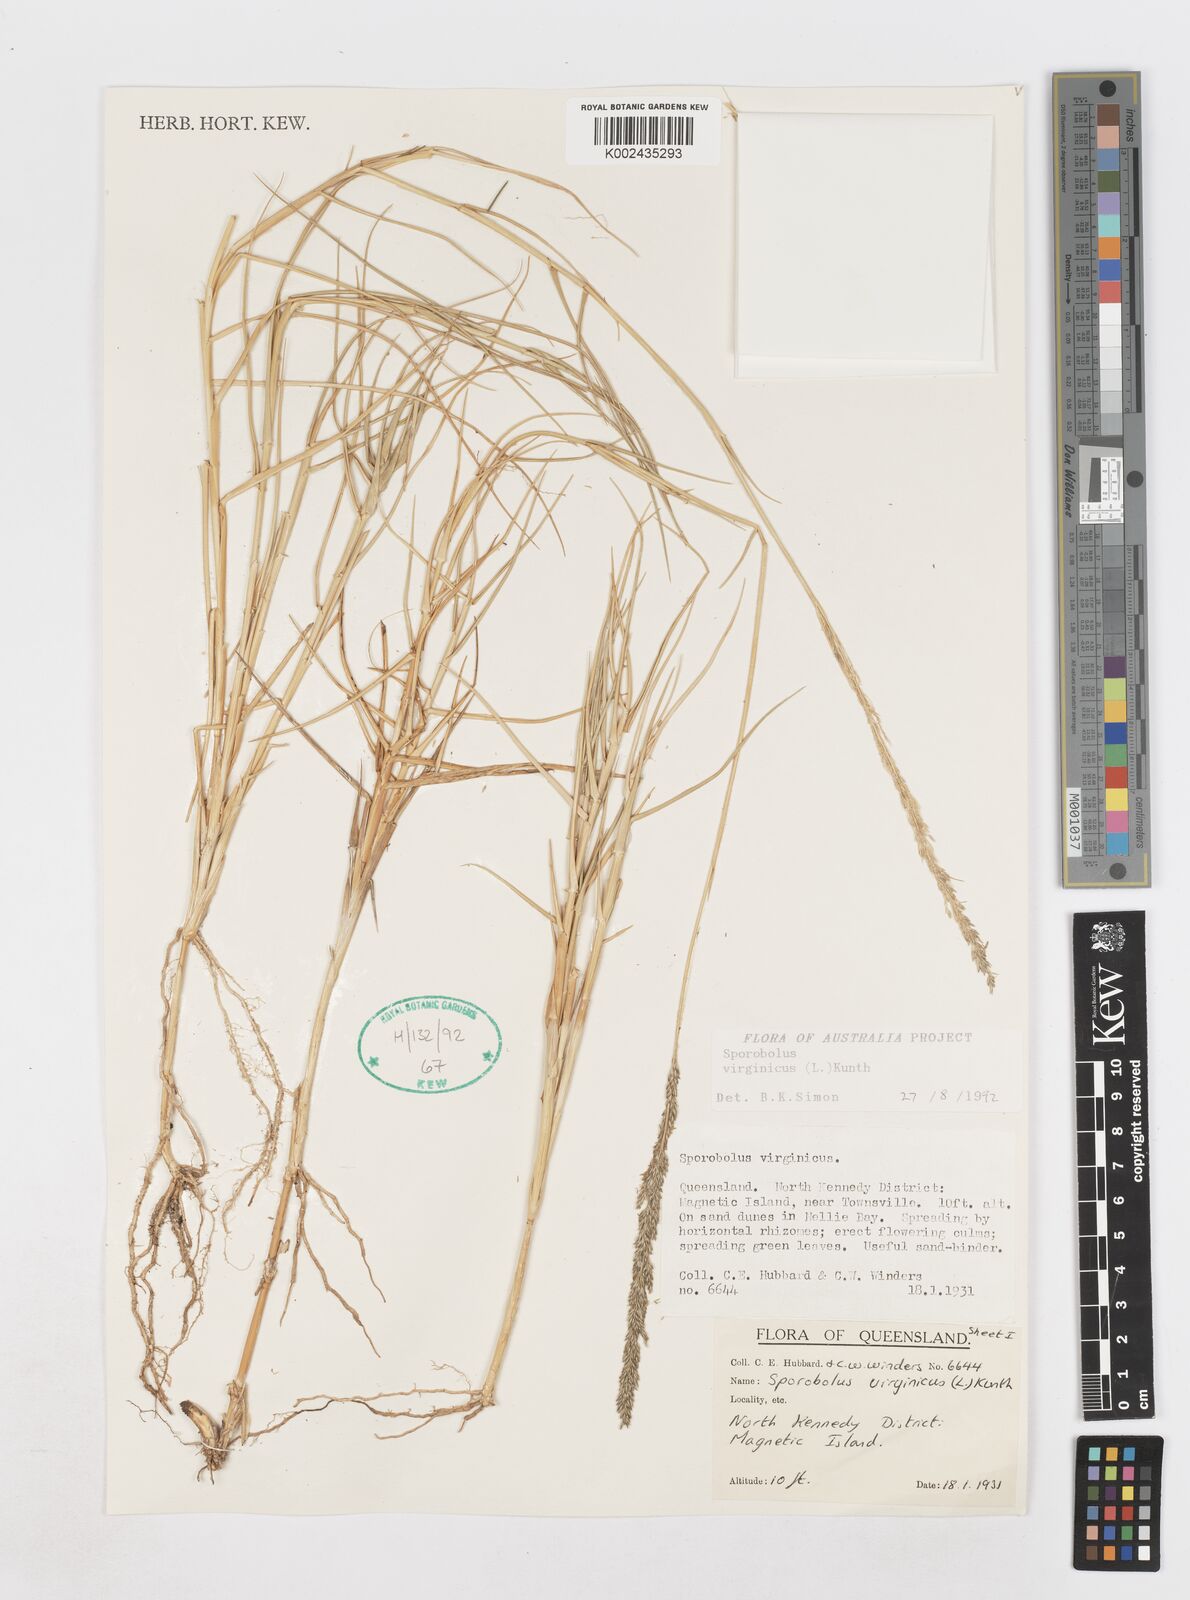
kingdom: Plantae
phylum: Tracheophyta
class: Liliopsida
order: Poales
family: Poaceae
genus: Sporobolus
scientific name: Sporobolus virginicus
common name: Beach dropseed
